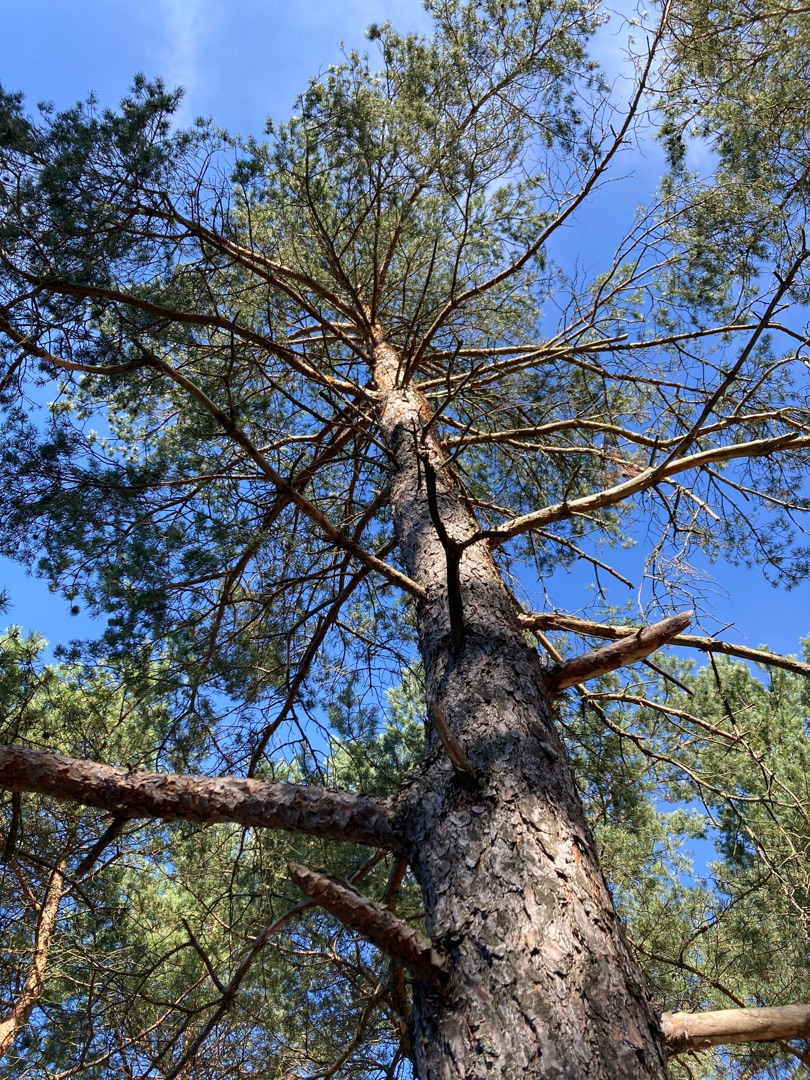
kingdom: Plantae
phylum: Tracheophyta
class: Pinopsida
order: Pinales
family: Pinaceae
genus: Pinus
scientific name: Pinus sylvestris
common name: Skov-fyr
